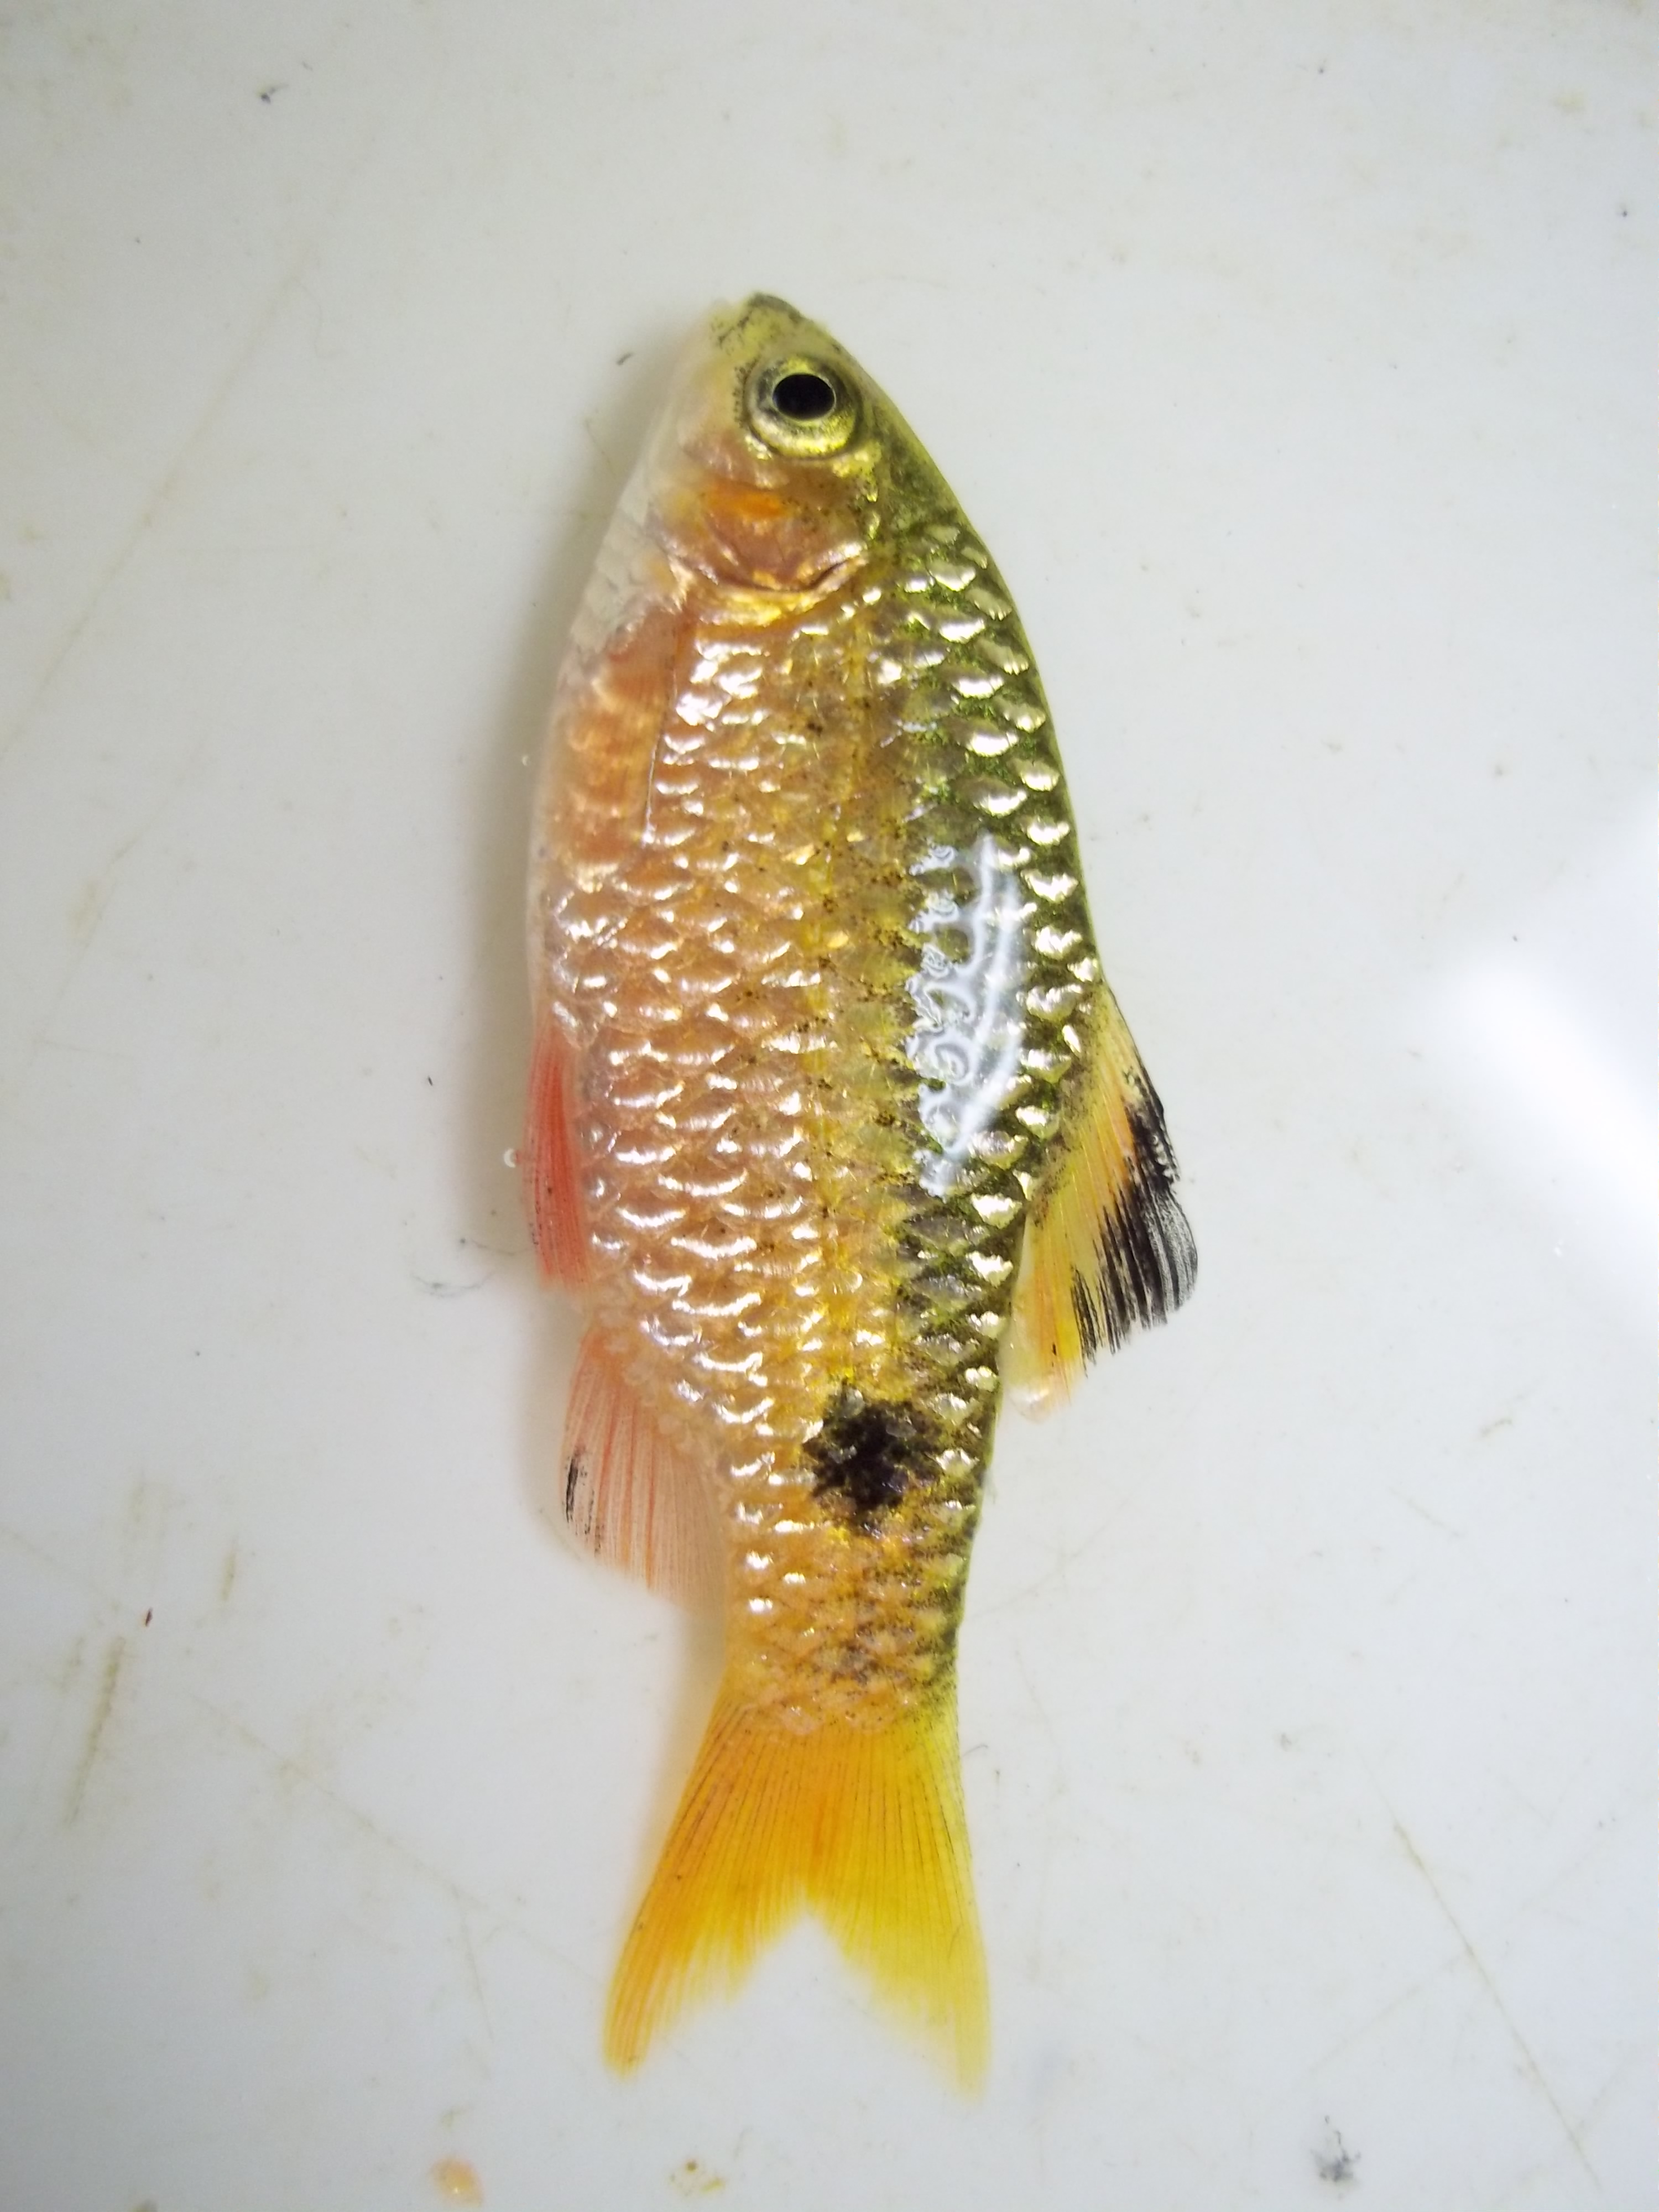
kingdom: Animalia
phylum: Chordata
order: Cypriniformes
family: Cyprinidae
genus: Pethia
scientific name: Pethia conchonius
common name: Rosy barb
